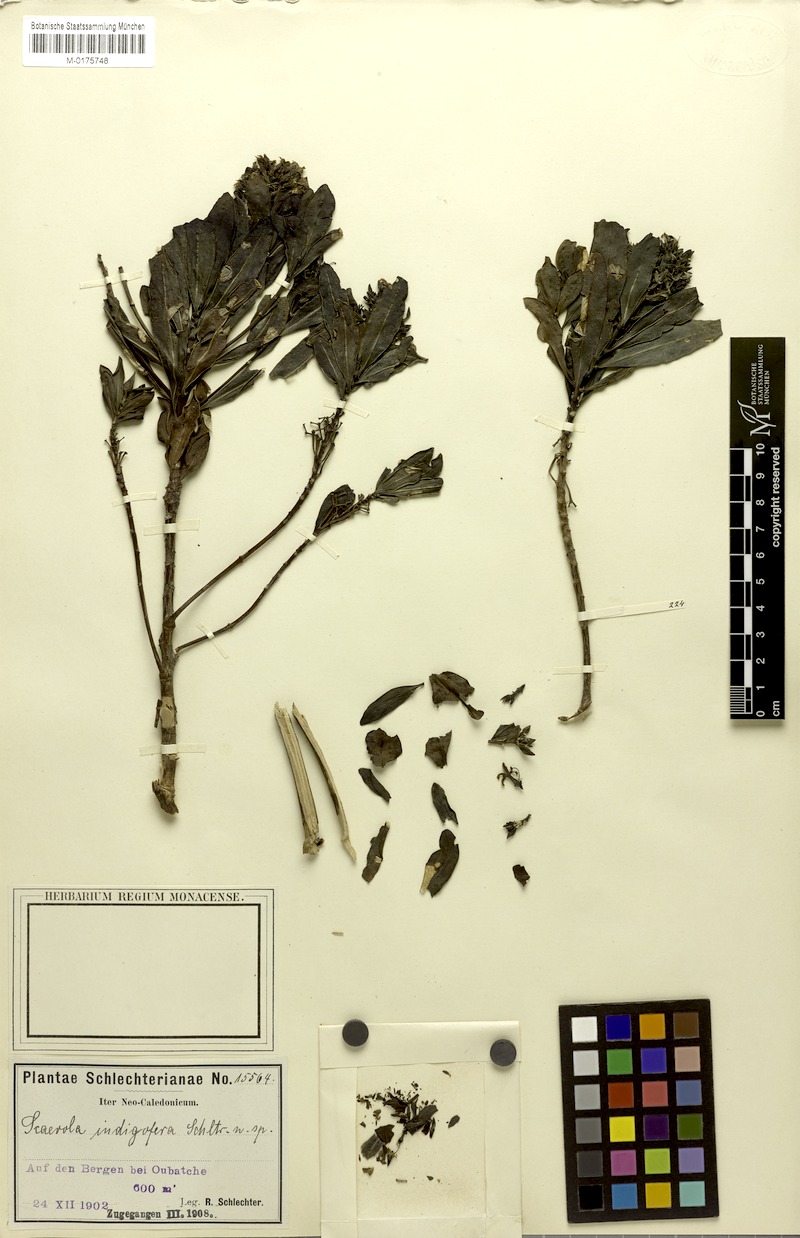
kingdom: Plantae
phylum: Tracheophyta
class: Magnoliopsida
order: Asterales
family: Goodeniaceae
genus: Scaevola
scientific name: Scaevola montana
